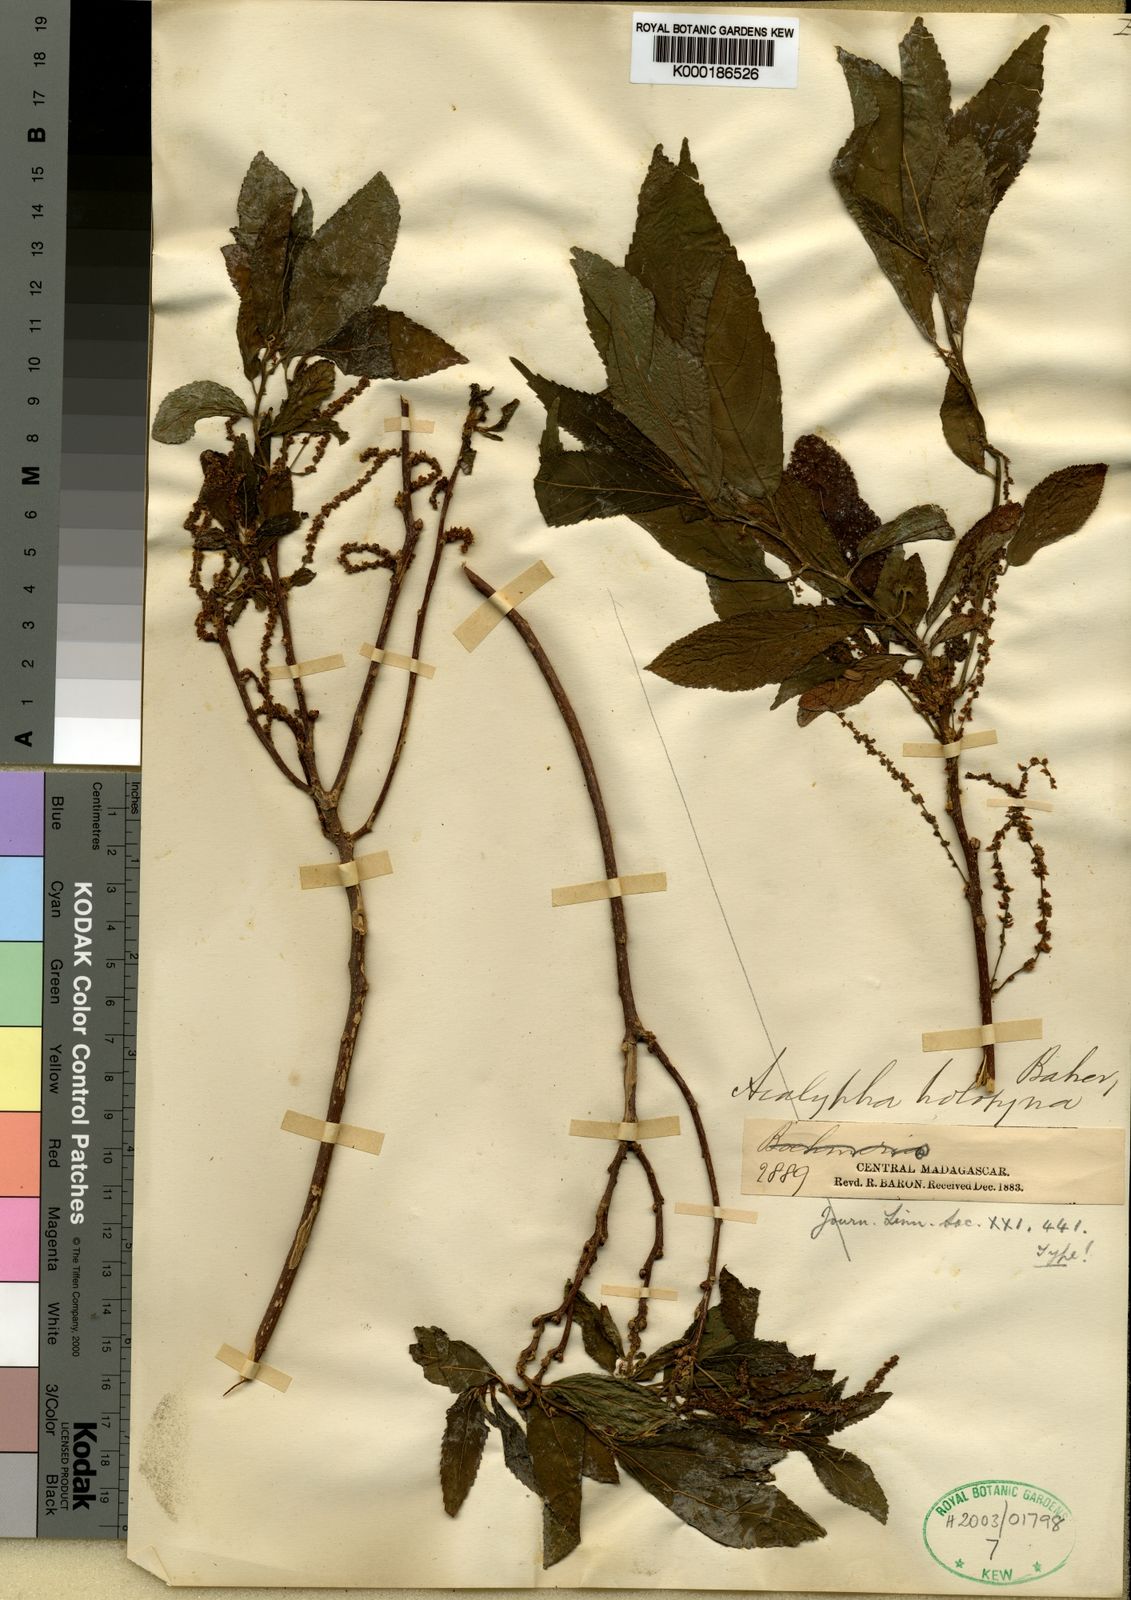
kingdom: Plantae
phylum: Tracheophyta
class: Magnoliopsida
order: Malpighiales
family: Euphorbiaceae
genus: Acalypha
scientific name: Acalypha emirnensis
